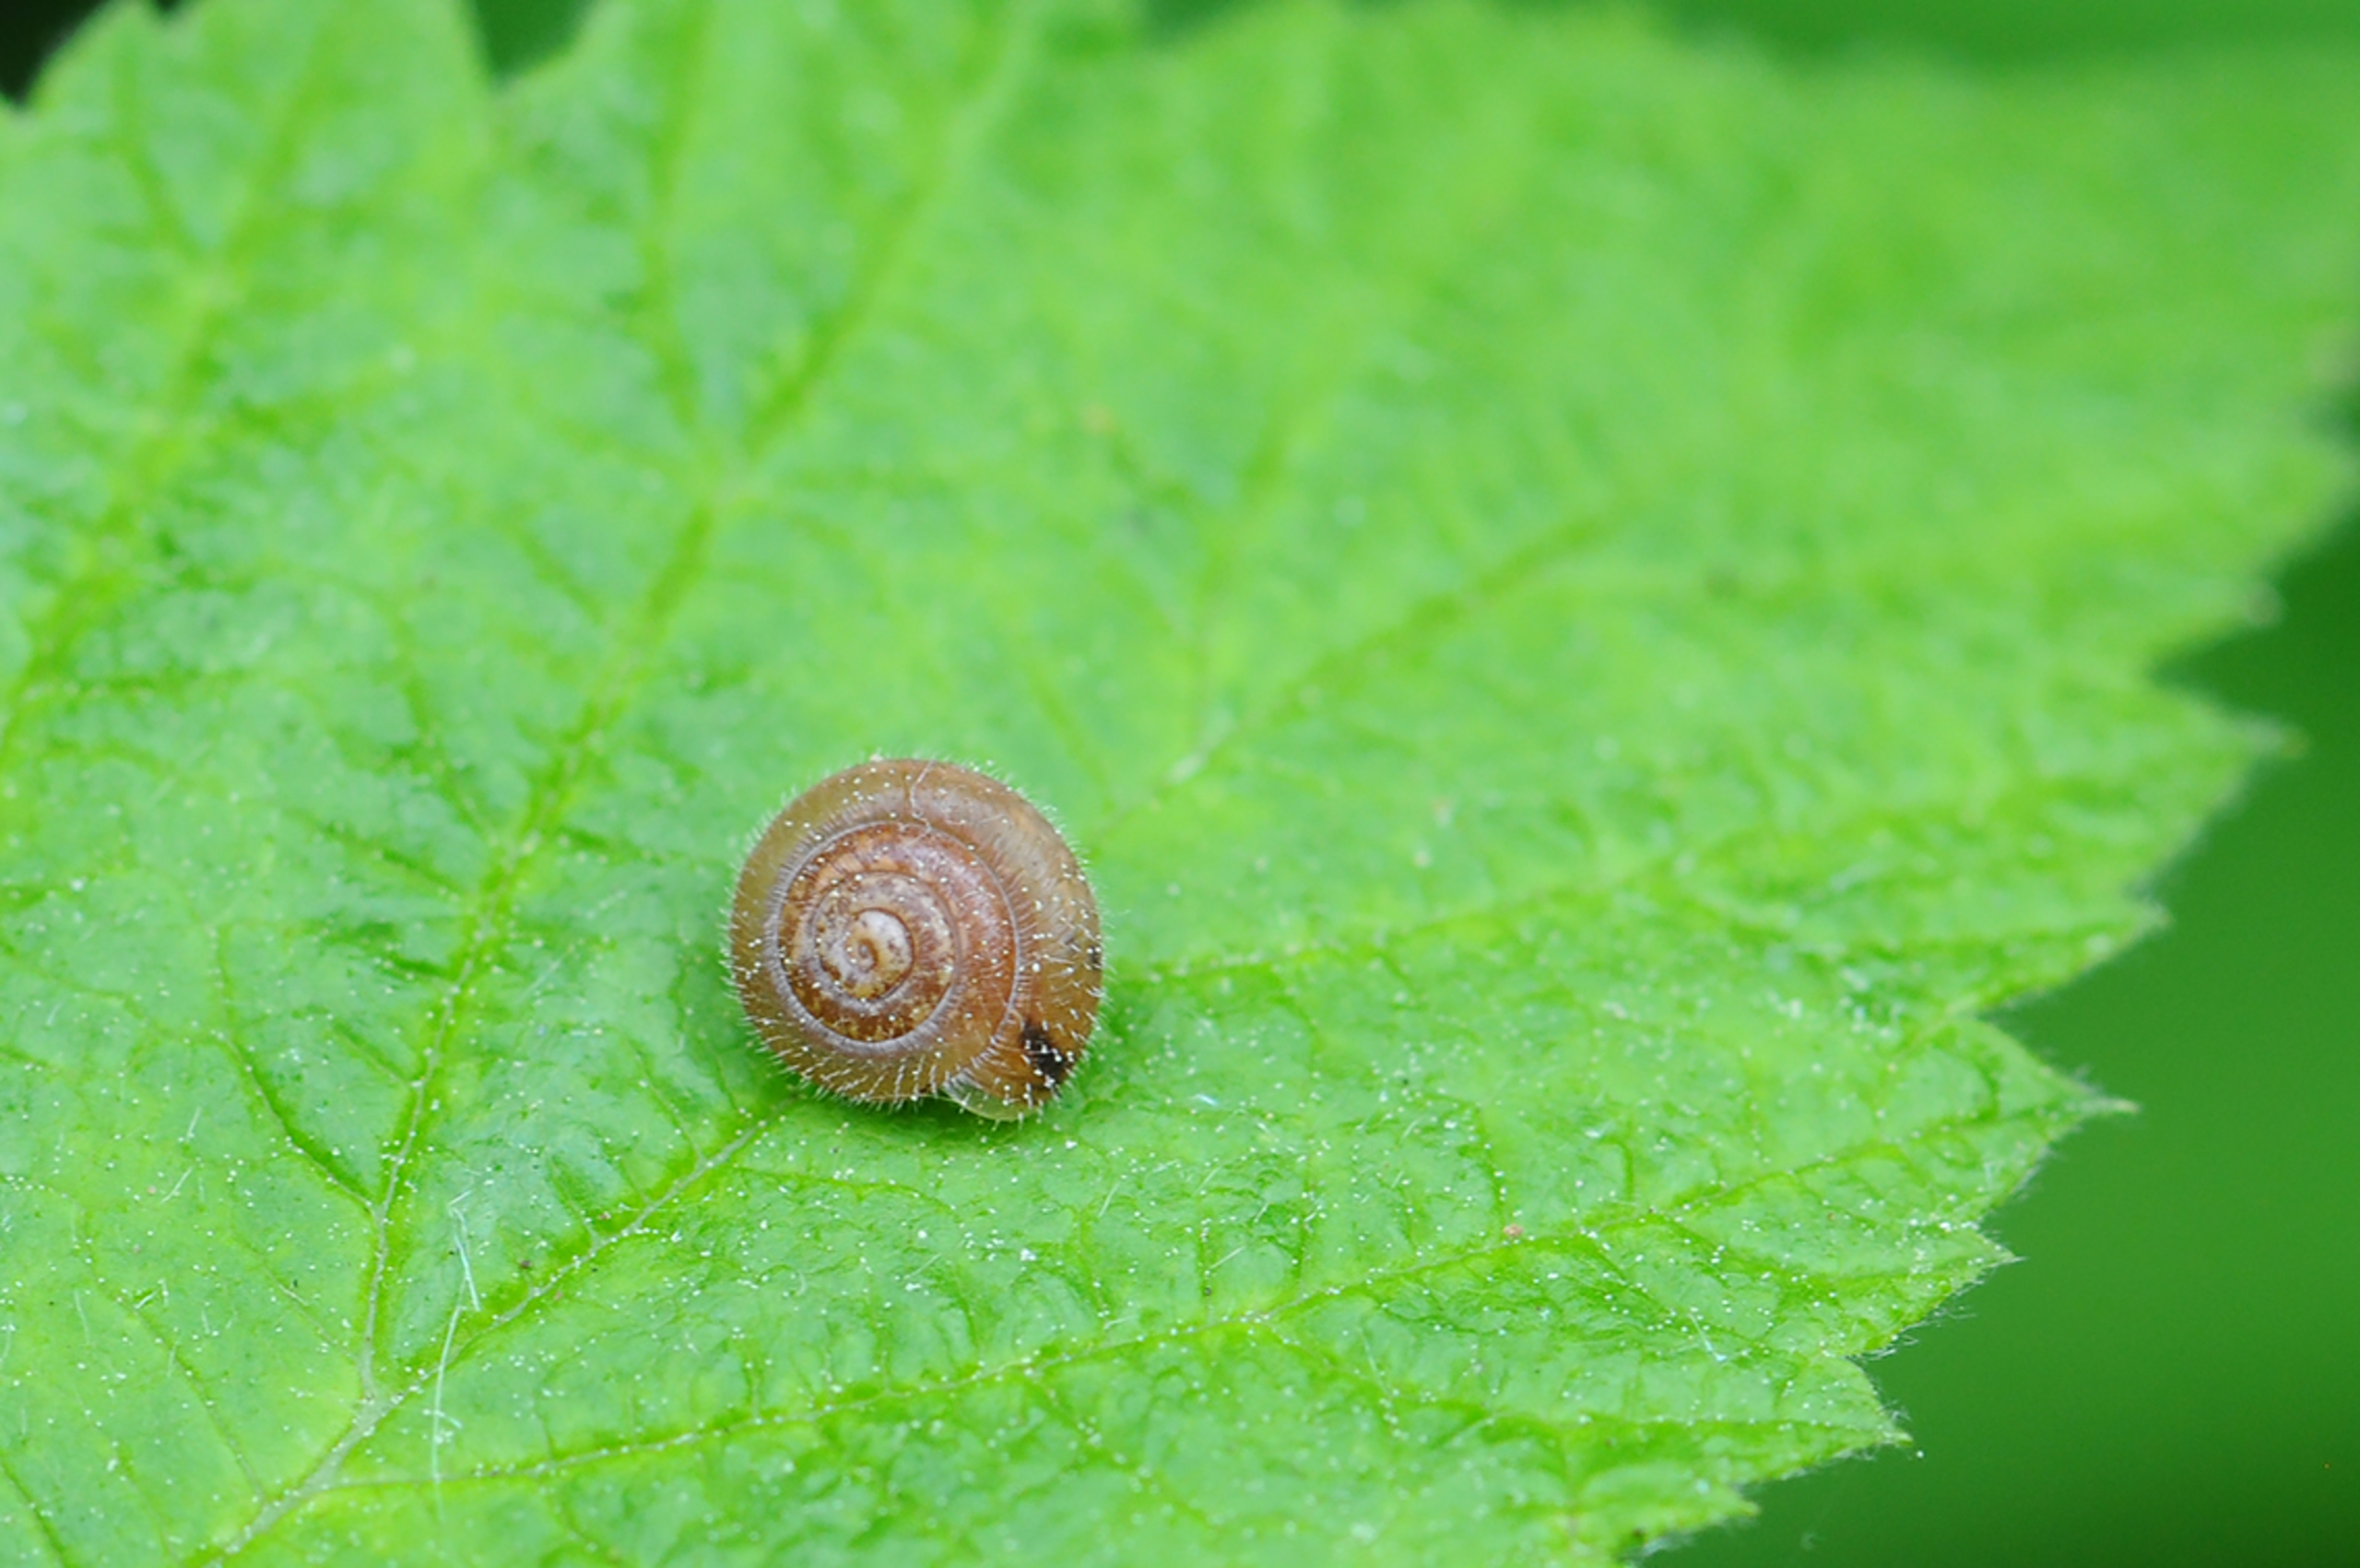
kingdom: Animalia
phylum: Mollusca
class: Gastropoda
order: Stylommatophora
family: Hygromiidae
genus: Trochulus
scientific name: Trochulus hispidus
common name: Håret snegl
